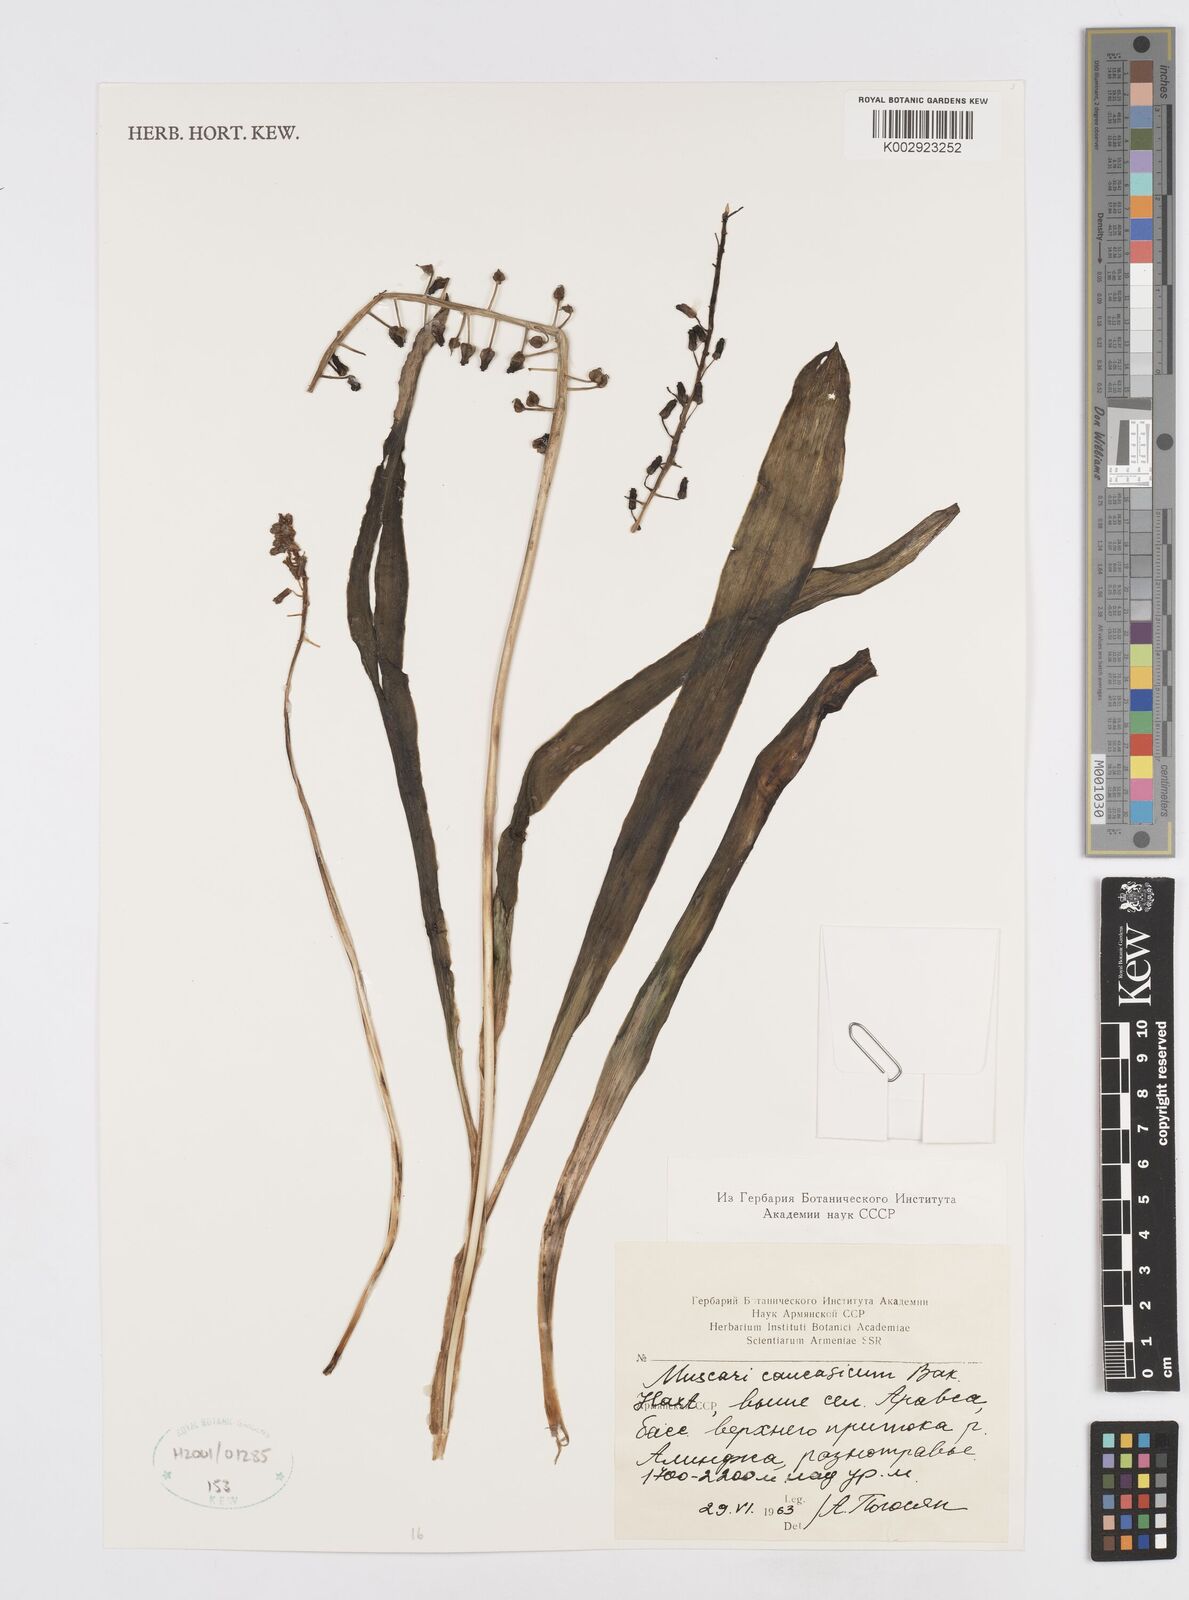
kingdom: Plantae
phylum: Tracheophyta
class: Liliopsida
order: Asparagales
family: Asparagaceae
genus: Muscari
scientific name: Muscari caucasicum
